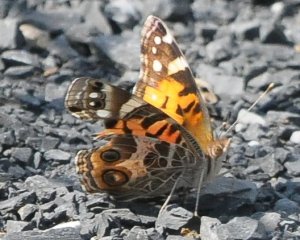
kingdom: Animalia
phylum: Arthropoda
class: Insecta
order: Lepidoptera
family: Nymphalidae
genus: Vanessa
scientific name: Vanessa virginiensis
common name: American Lady
